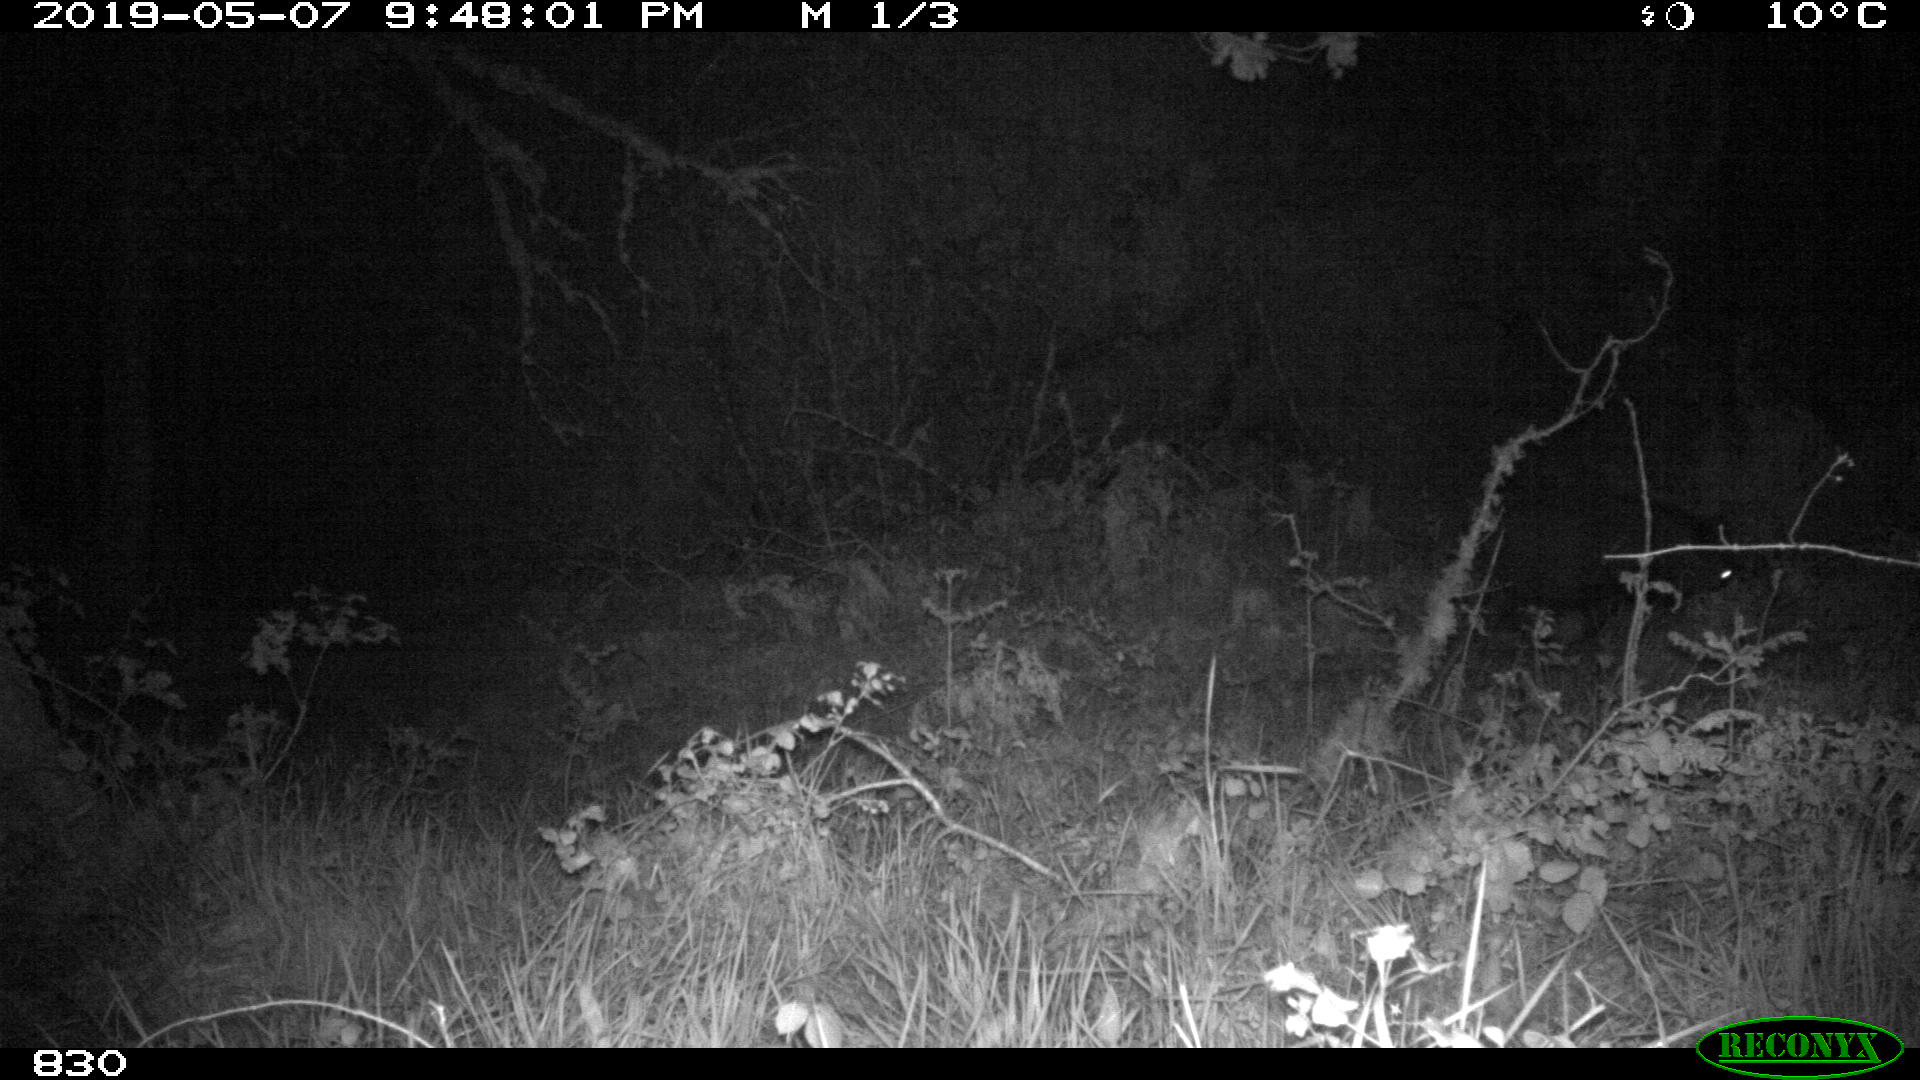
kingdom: Animalia
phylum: Chordata
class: Mammalia
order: Artiodactyla
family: Suidae
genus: Sus
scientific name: Sus scrofa
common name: Wild boar
